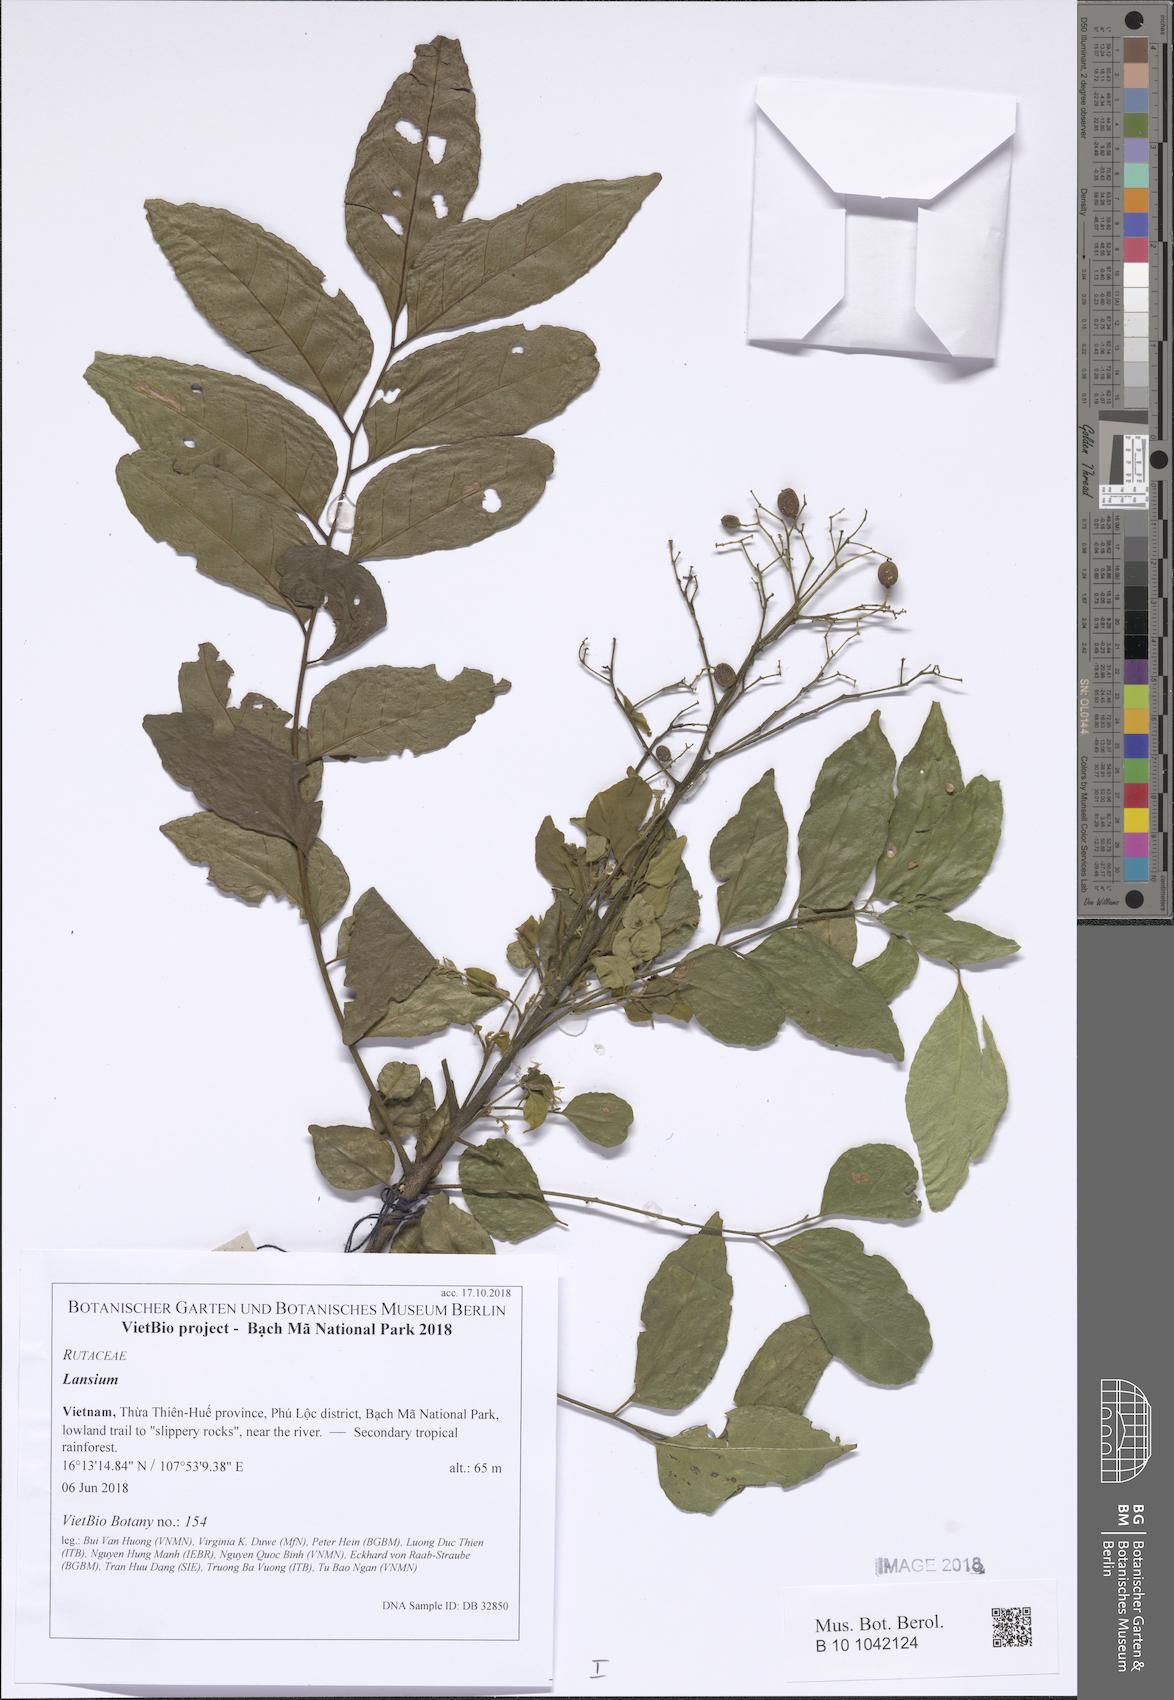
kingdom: Plantae
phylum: Tracheophyta
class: Magnoliopsida
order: Sapindales
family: Meliaceae
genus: Lansium
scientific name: Lansium
